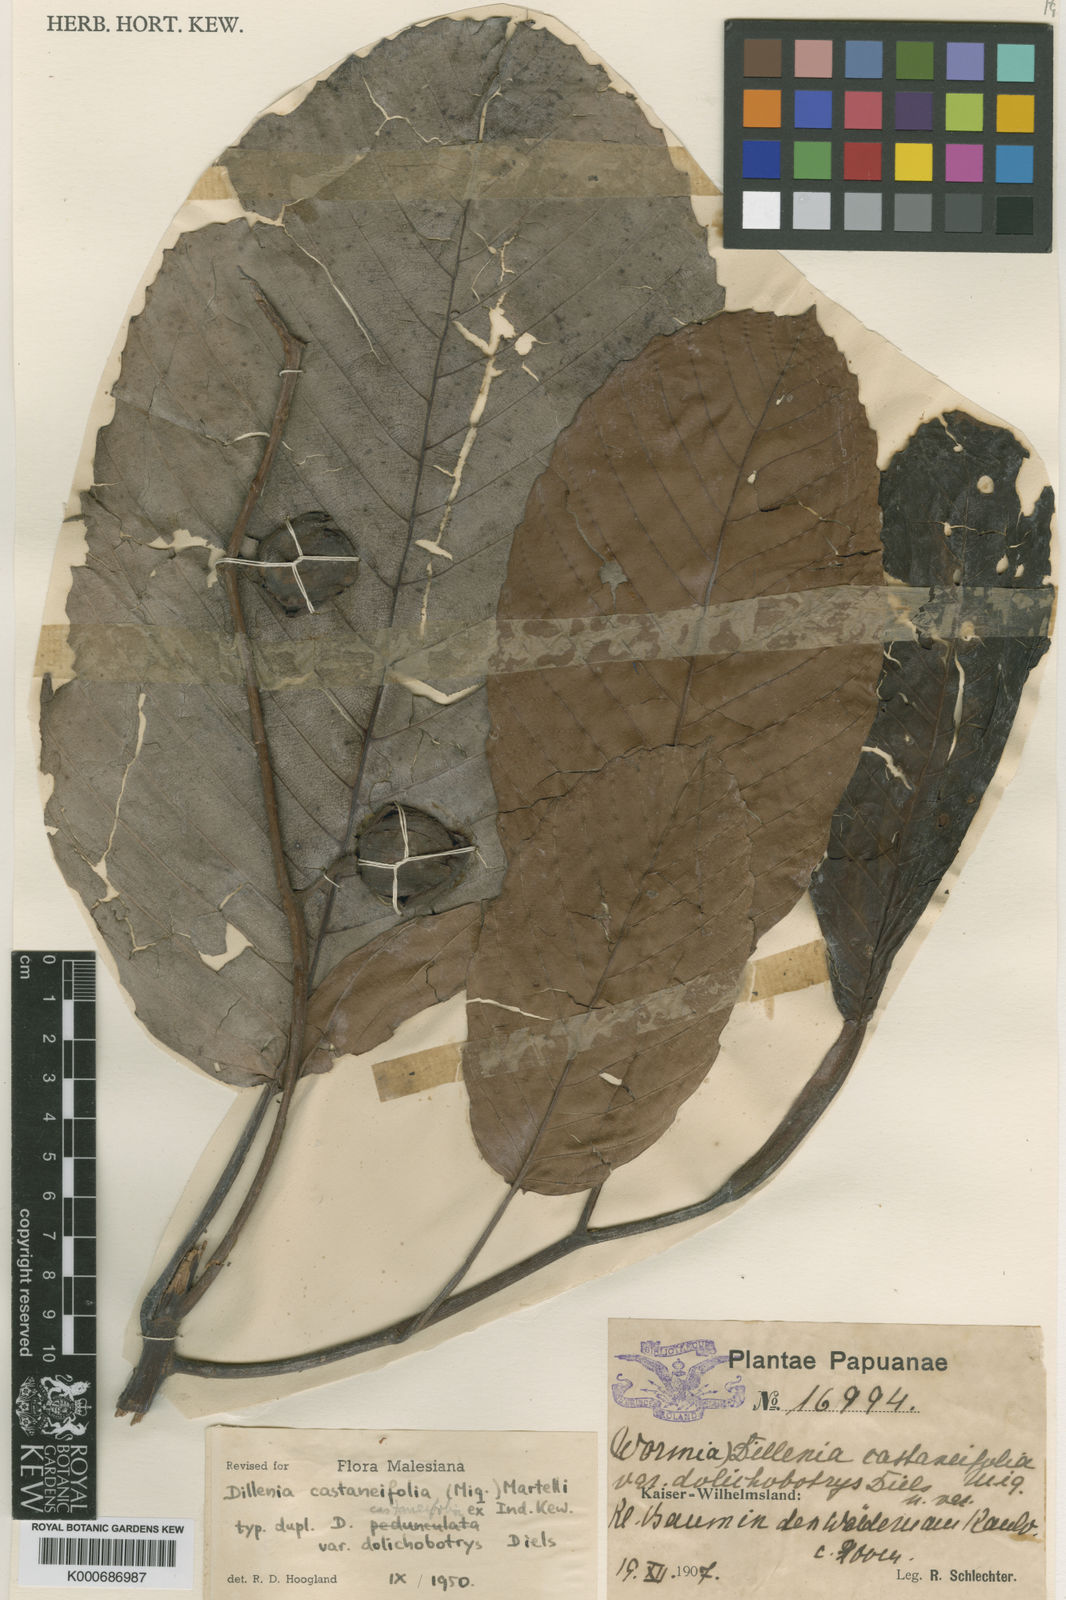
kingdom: Plantae
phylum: Tracheophyta
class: Magnoliopsida
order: Dilleniales
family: Dilleniaceae
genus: Dillenia
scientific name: Dillenia castaneifolia
